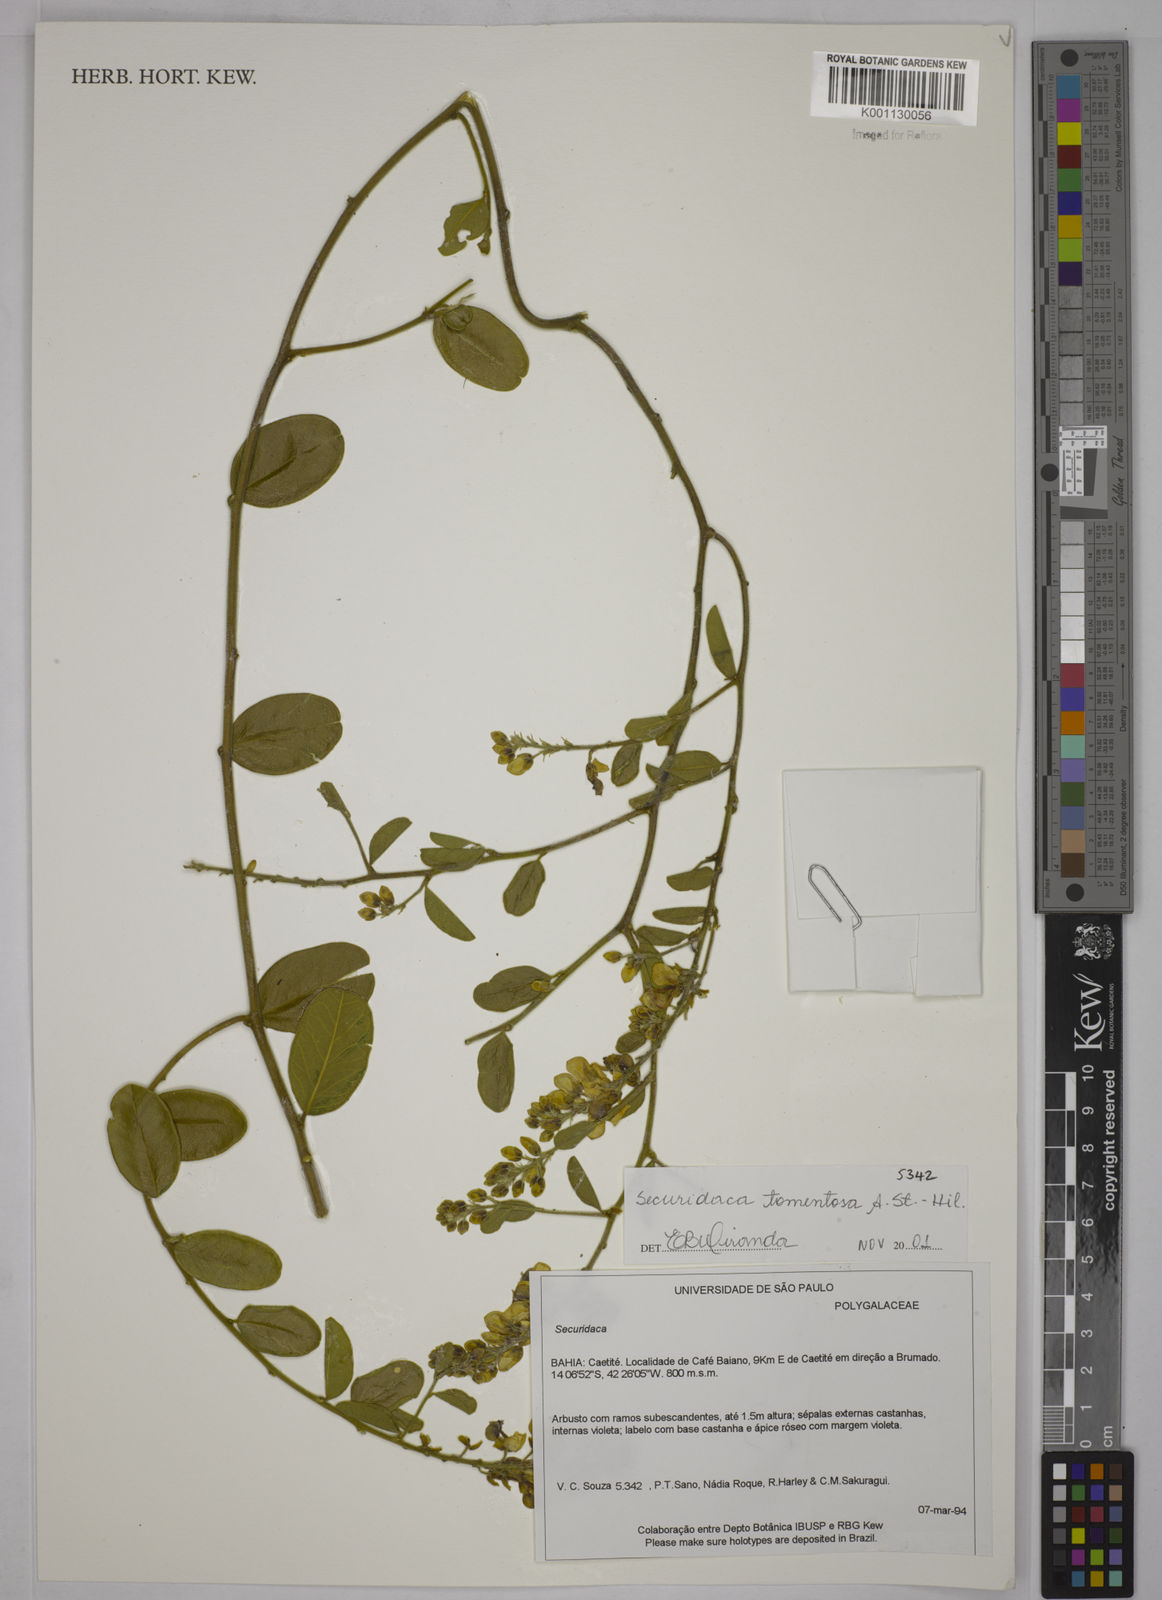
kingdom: Plantae
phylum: Tracheophyta
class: Magnoliopsida
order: Fabales
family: Polygalaceae
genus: Securidaca
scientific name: Securidaca tomentosa
